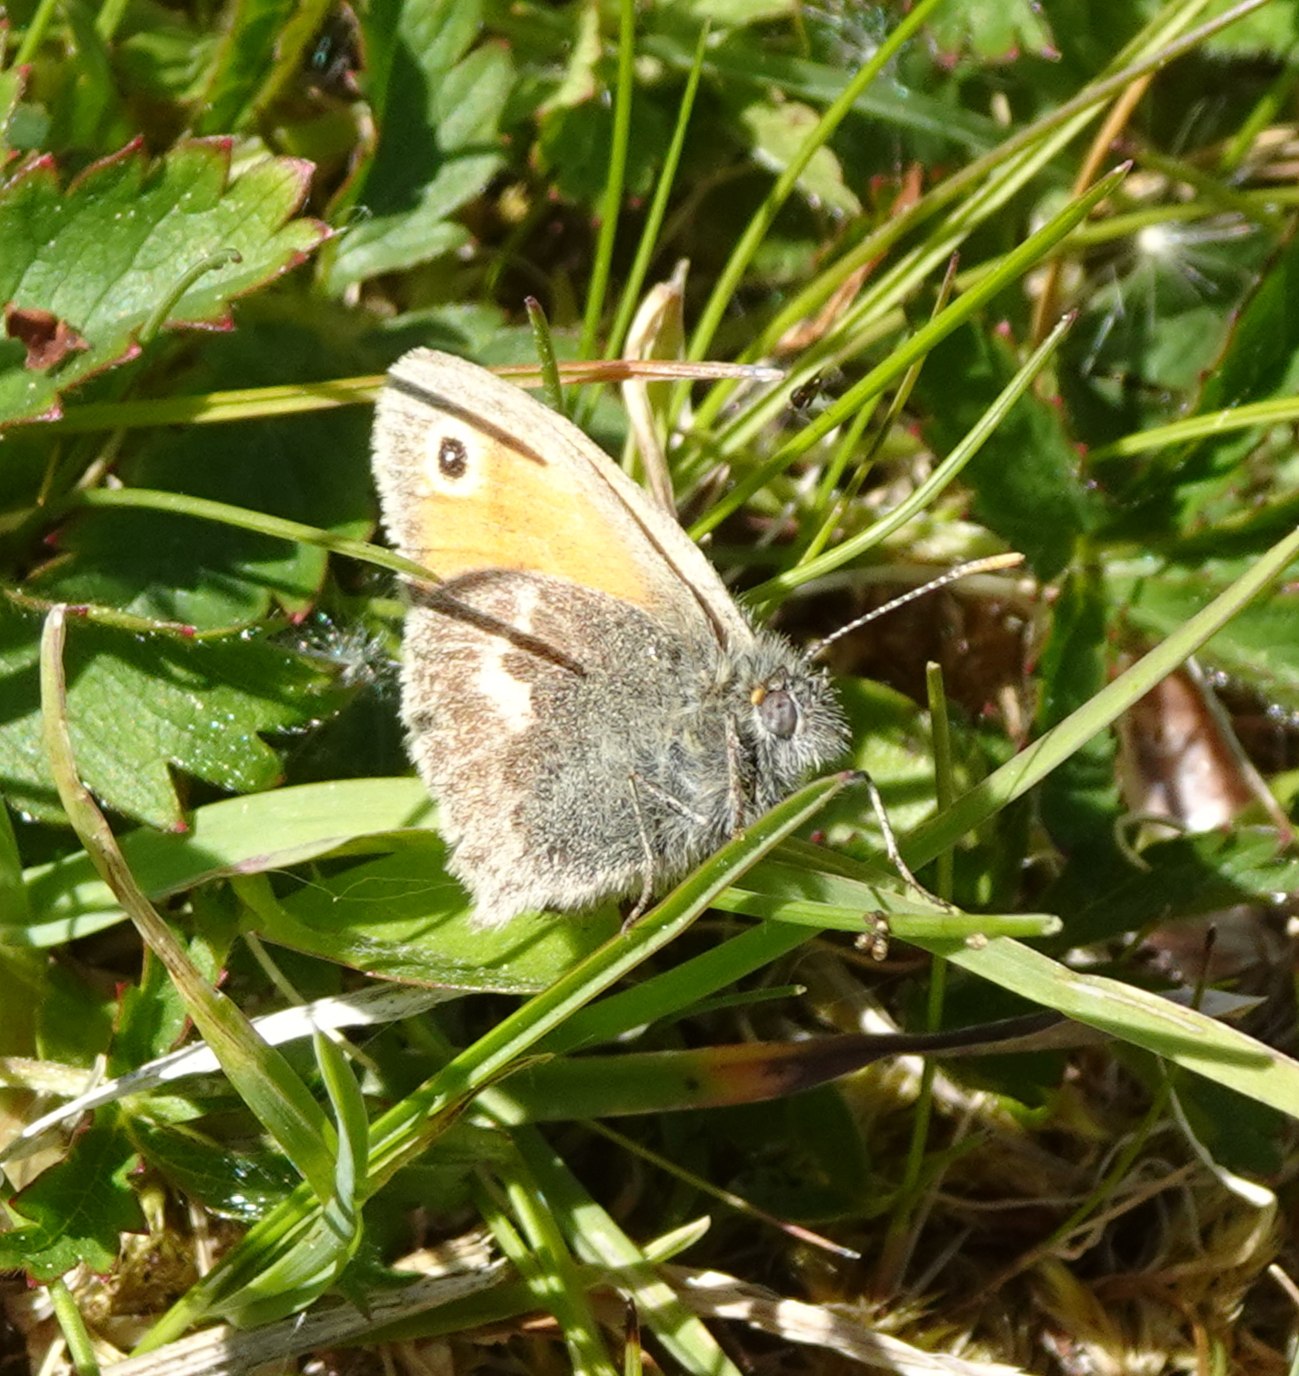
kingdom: Animalia
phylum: Arthropoda
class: Insecta
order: Lepidoptera
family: Nymphalidae
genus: Coenonympha
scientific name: Coenonympha pamphilus
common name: Okkergul randøje
